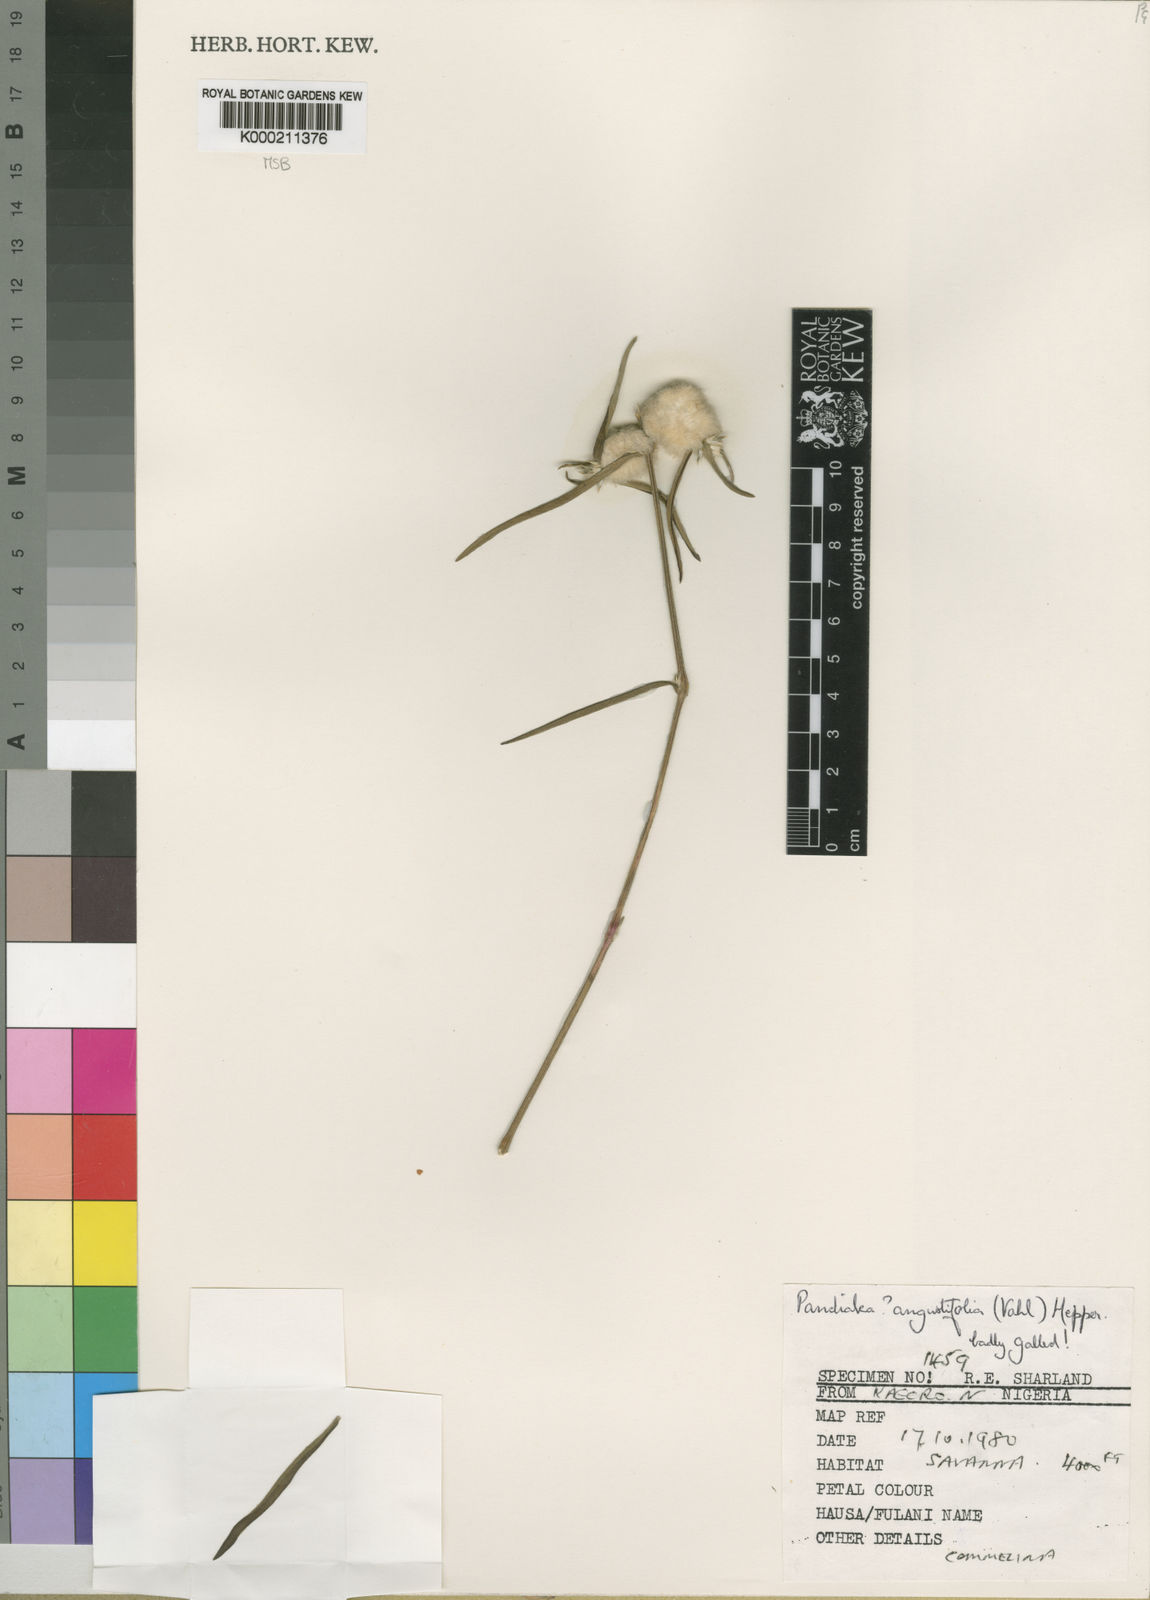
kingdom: Plantae
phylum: Tracheophyta
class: Magnoliopsida
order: Caryophyllales
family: Amaranthaceae
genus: Pandiaka
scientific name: Pandiaka angustifolia
